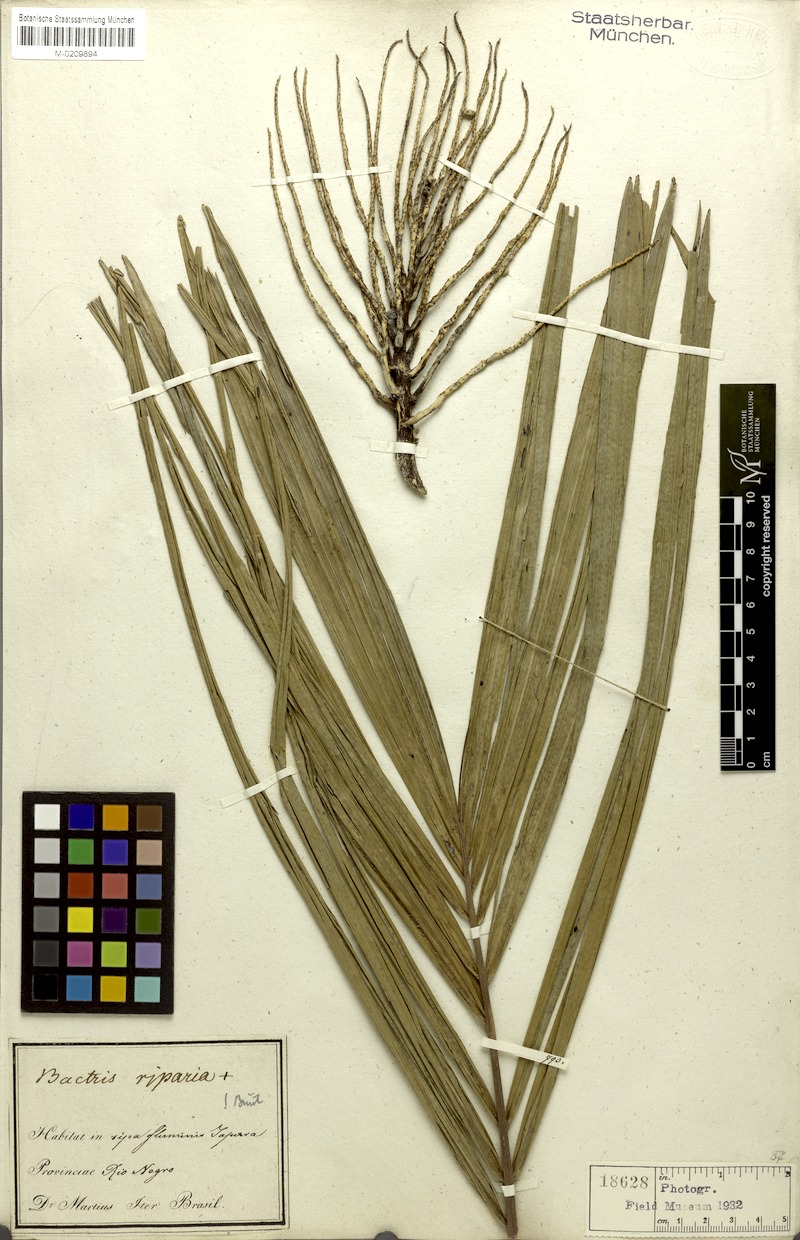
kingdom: Plantae
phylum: Tracheophyta
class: Liliopsida
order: Arecales
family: Arecaceae
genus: Bactris
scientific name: Bactris riparia
